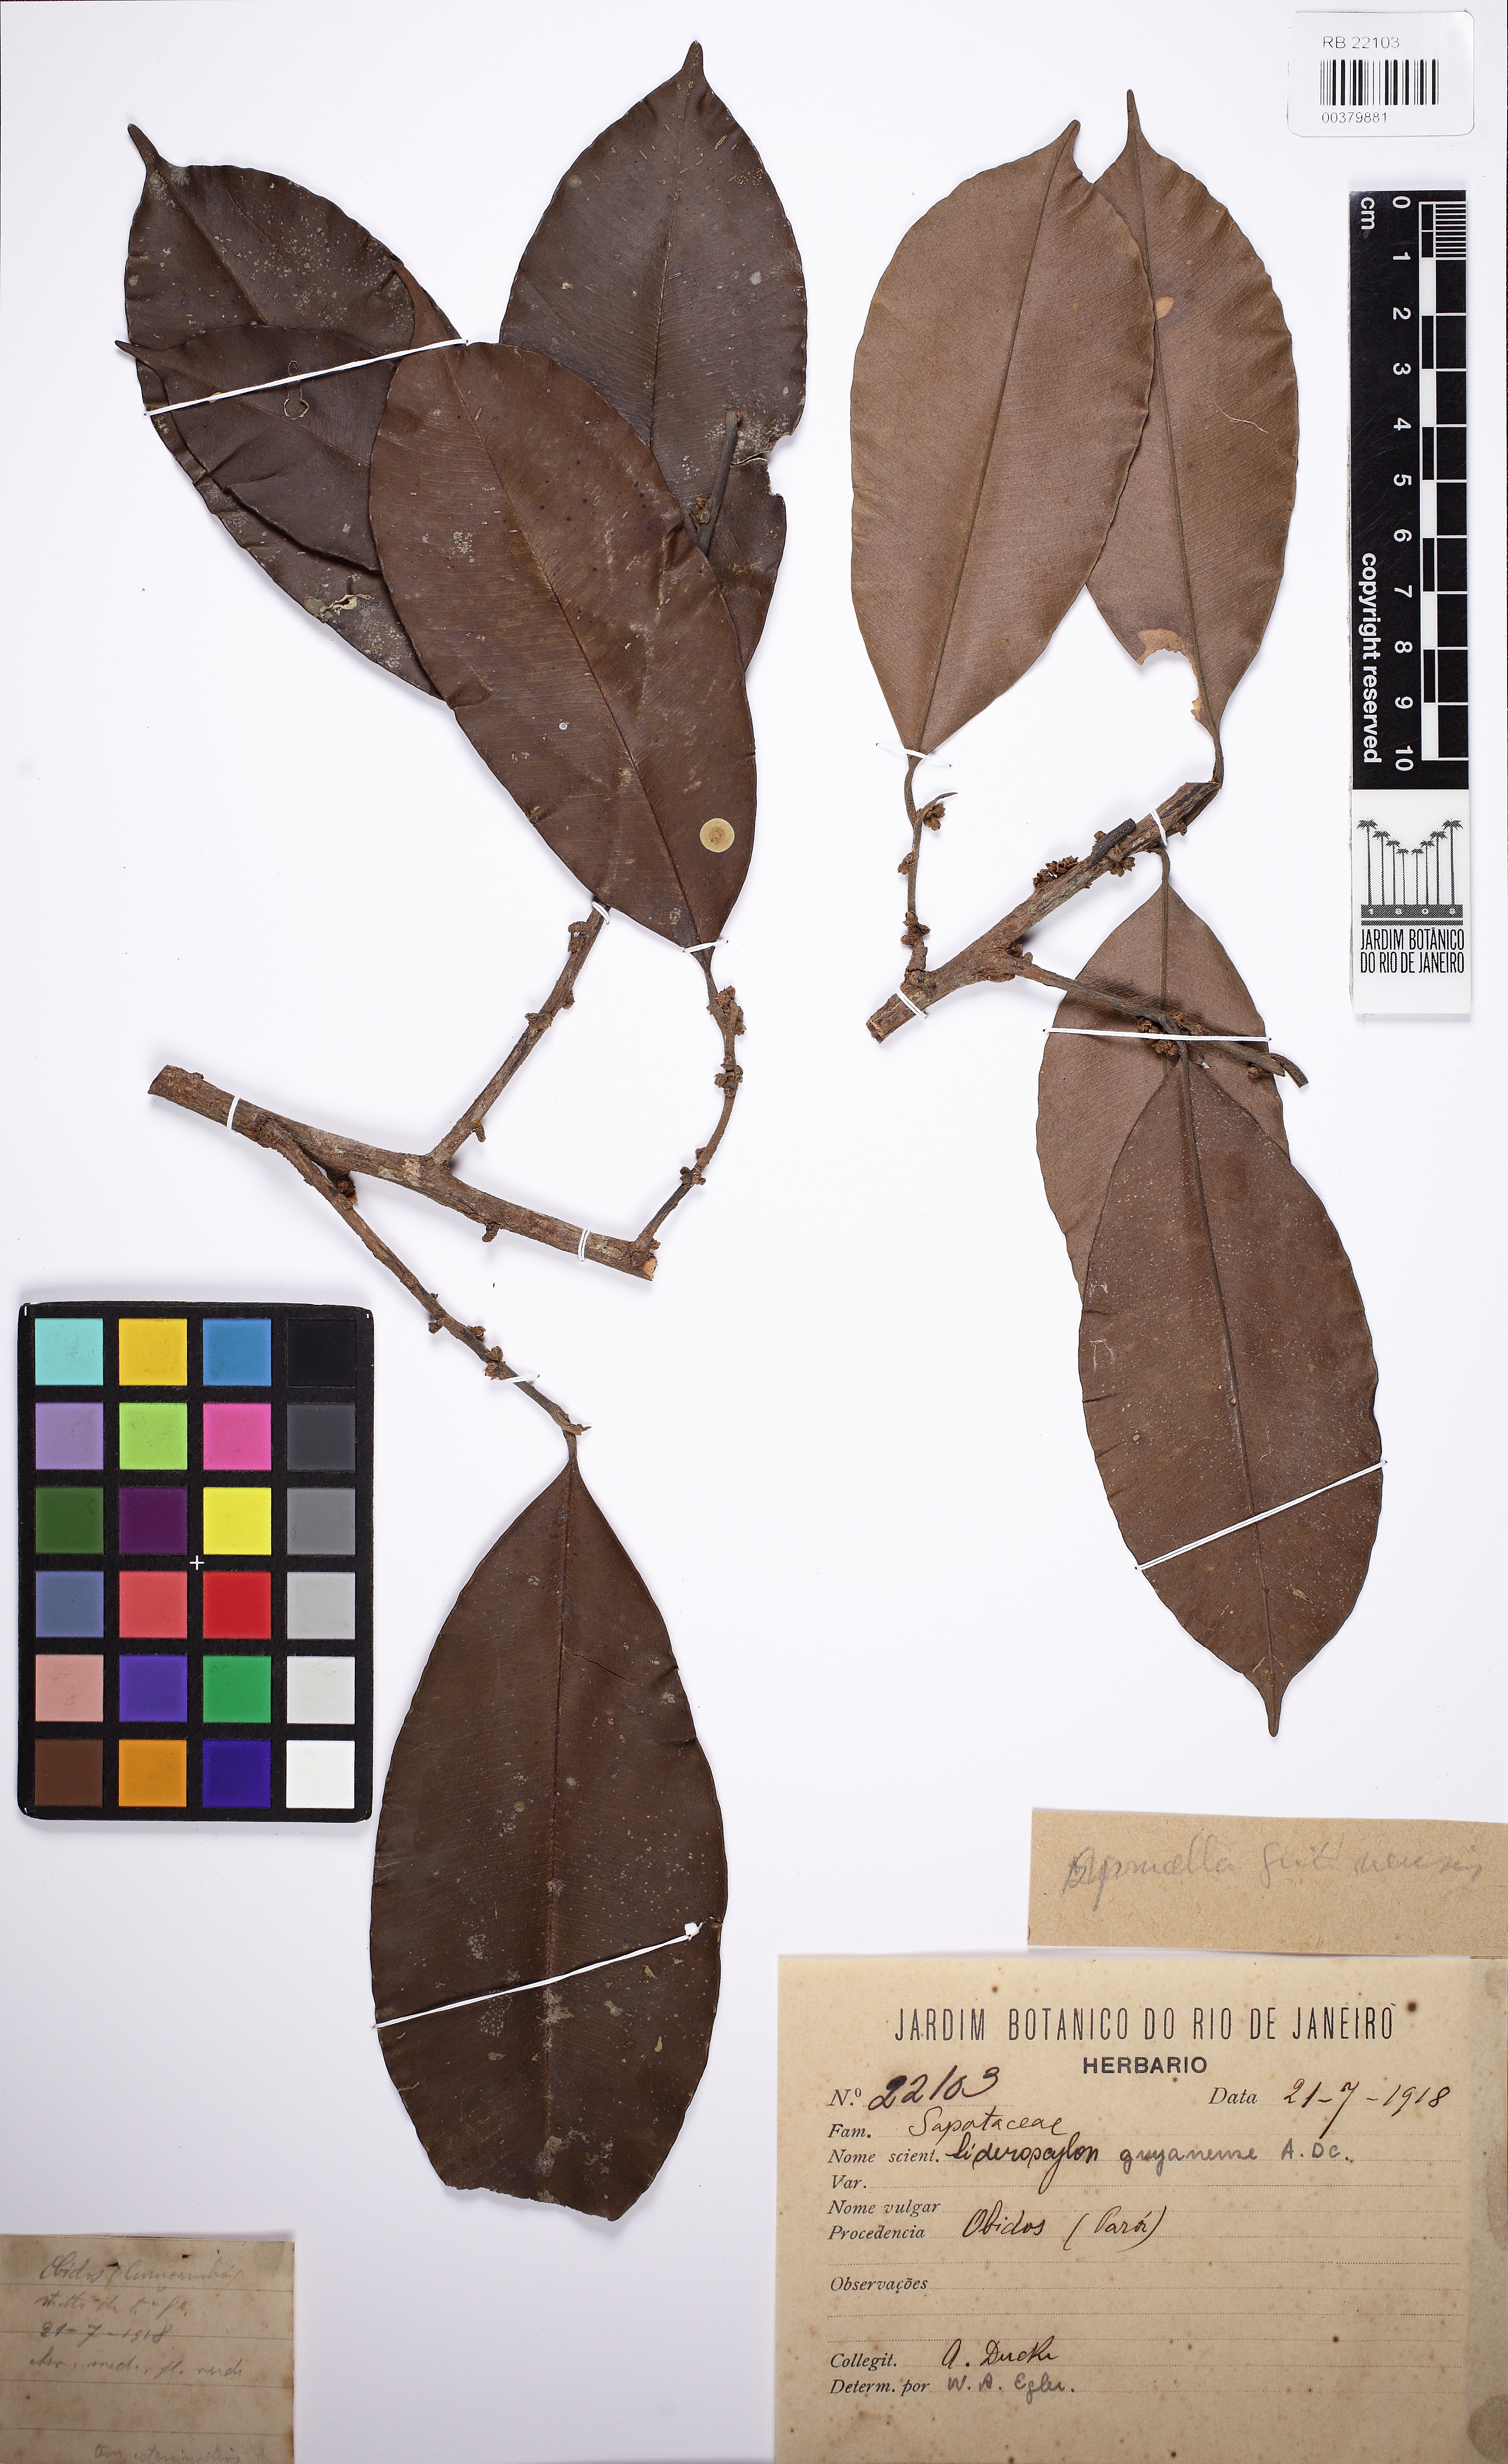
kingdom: Plantae
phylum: Tracheophyta
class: Magnoliopsida
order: Ericales
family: Sapotaceae
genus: Micropholis
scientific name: Micropholis
